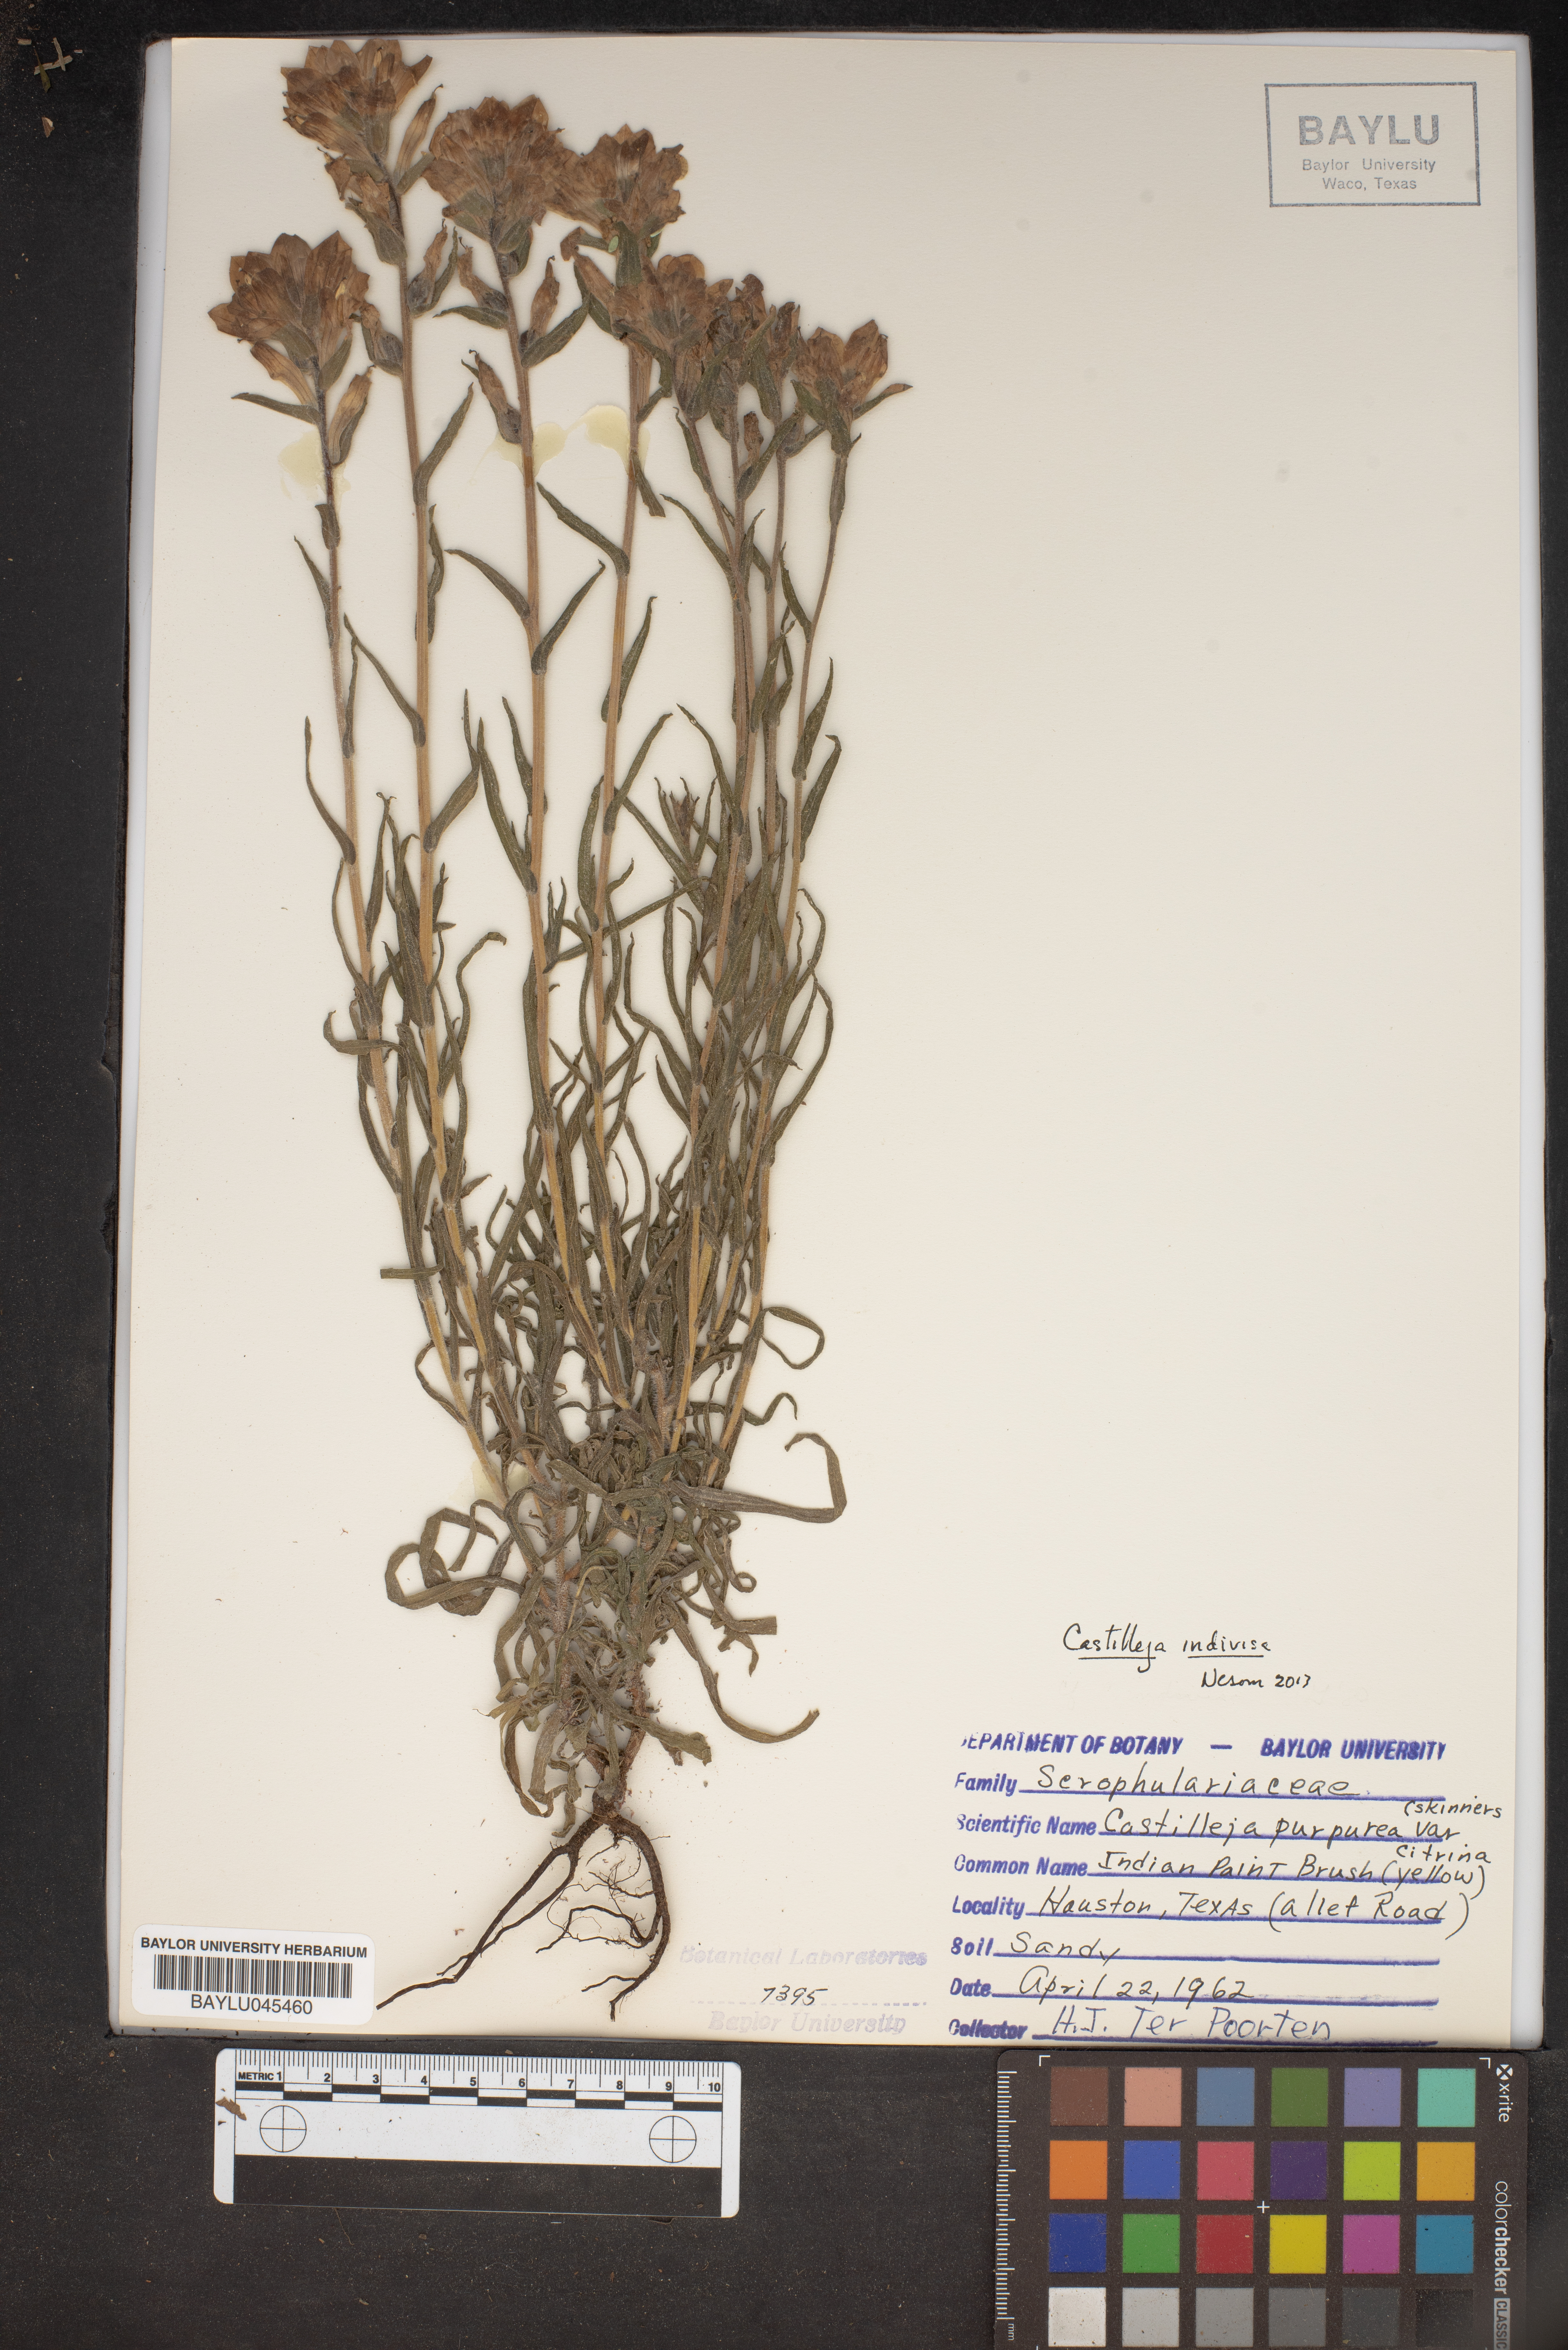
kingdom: Plantae
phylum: Tracheophyta
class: Magnoliopsida
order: Lamiales
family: Orobanchaceae
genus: Castilleja
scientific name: Castilleja indivisa
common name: Texas paintbrush
